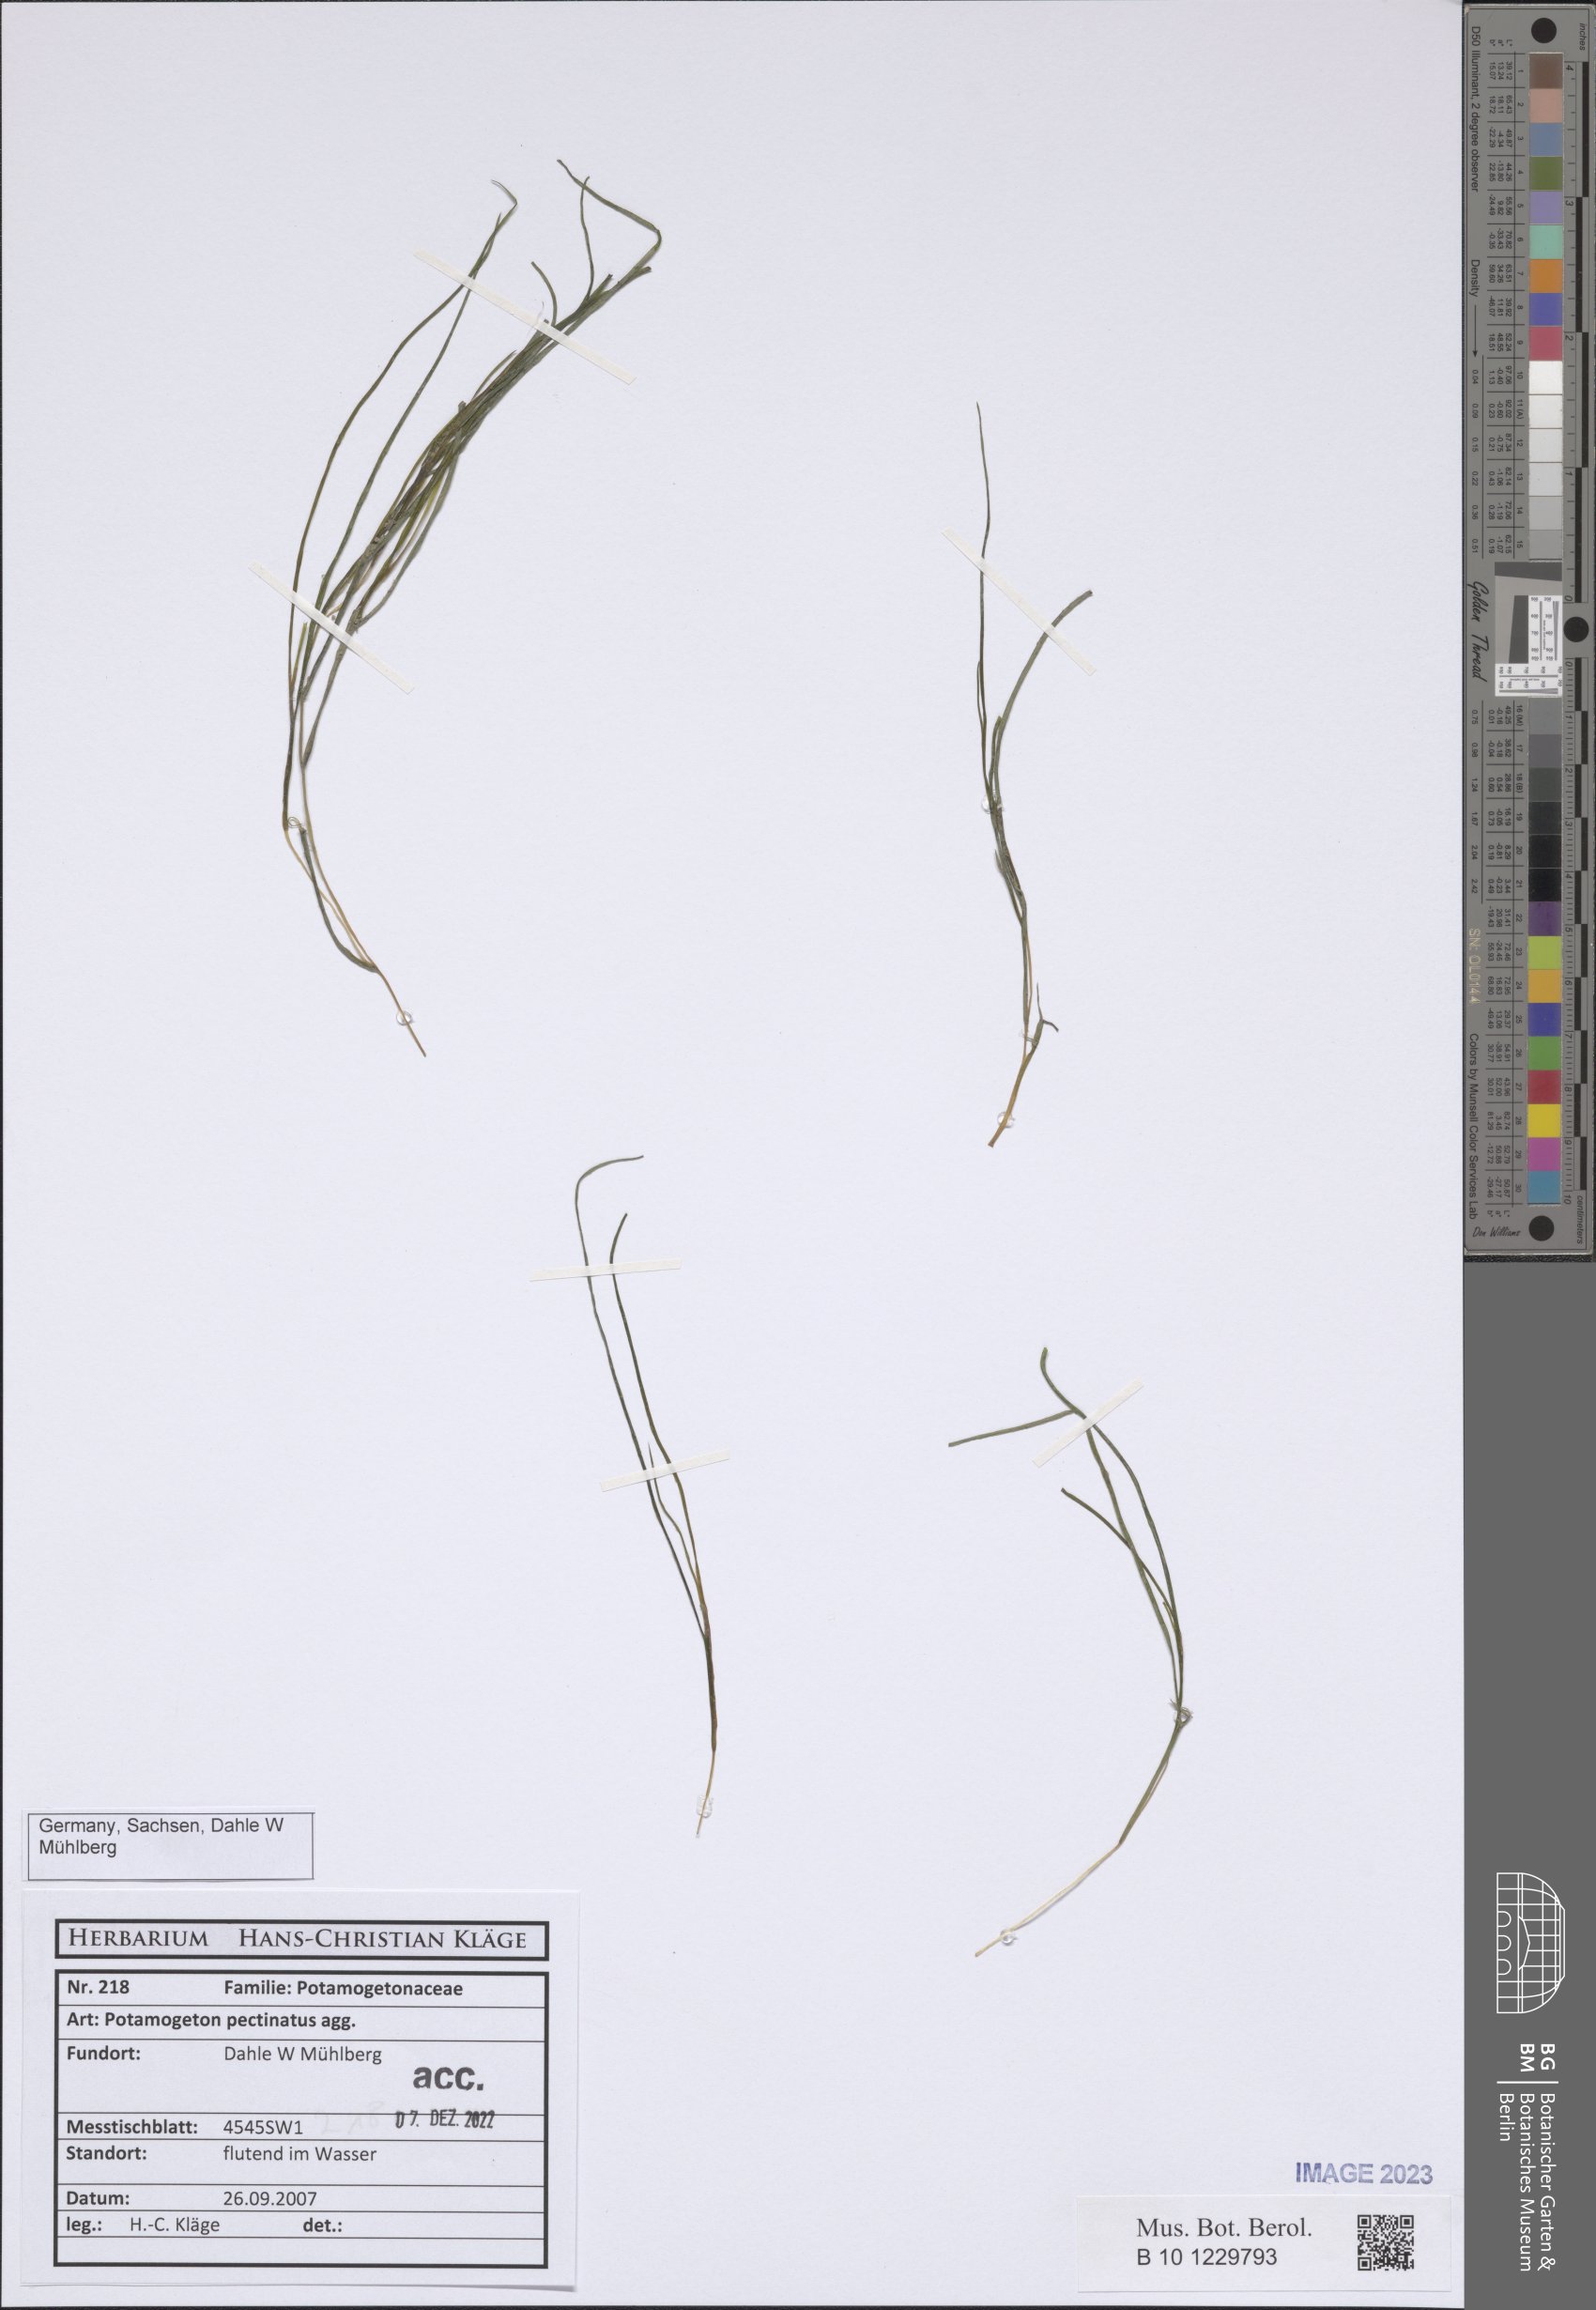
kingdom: Plantae
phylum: Tracheophyta
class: Liliopsida
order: Alismatales
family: Potamogetonaceae
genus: Stuckenia
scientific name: Stuckenia pectinata
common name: Sago pondweed
